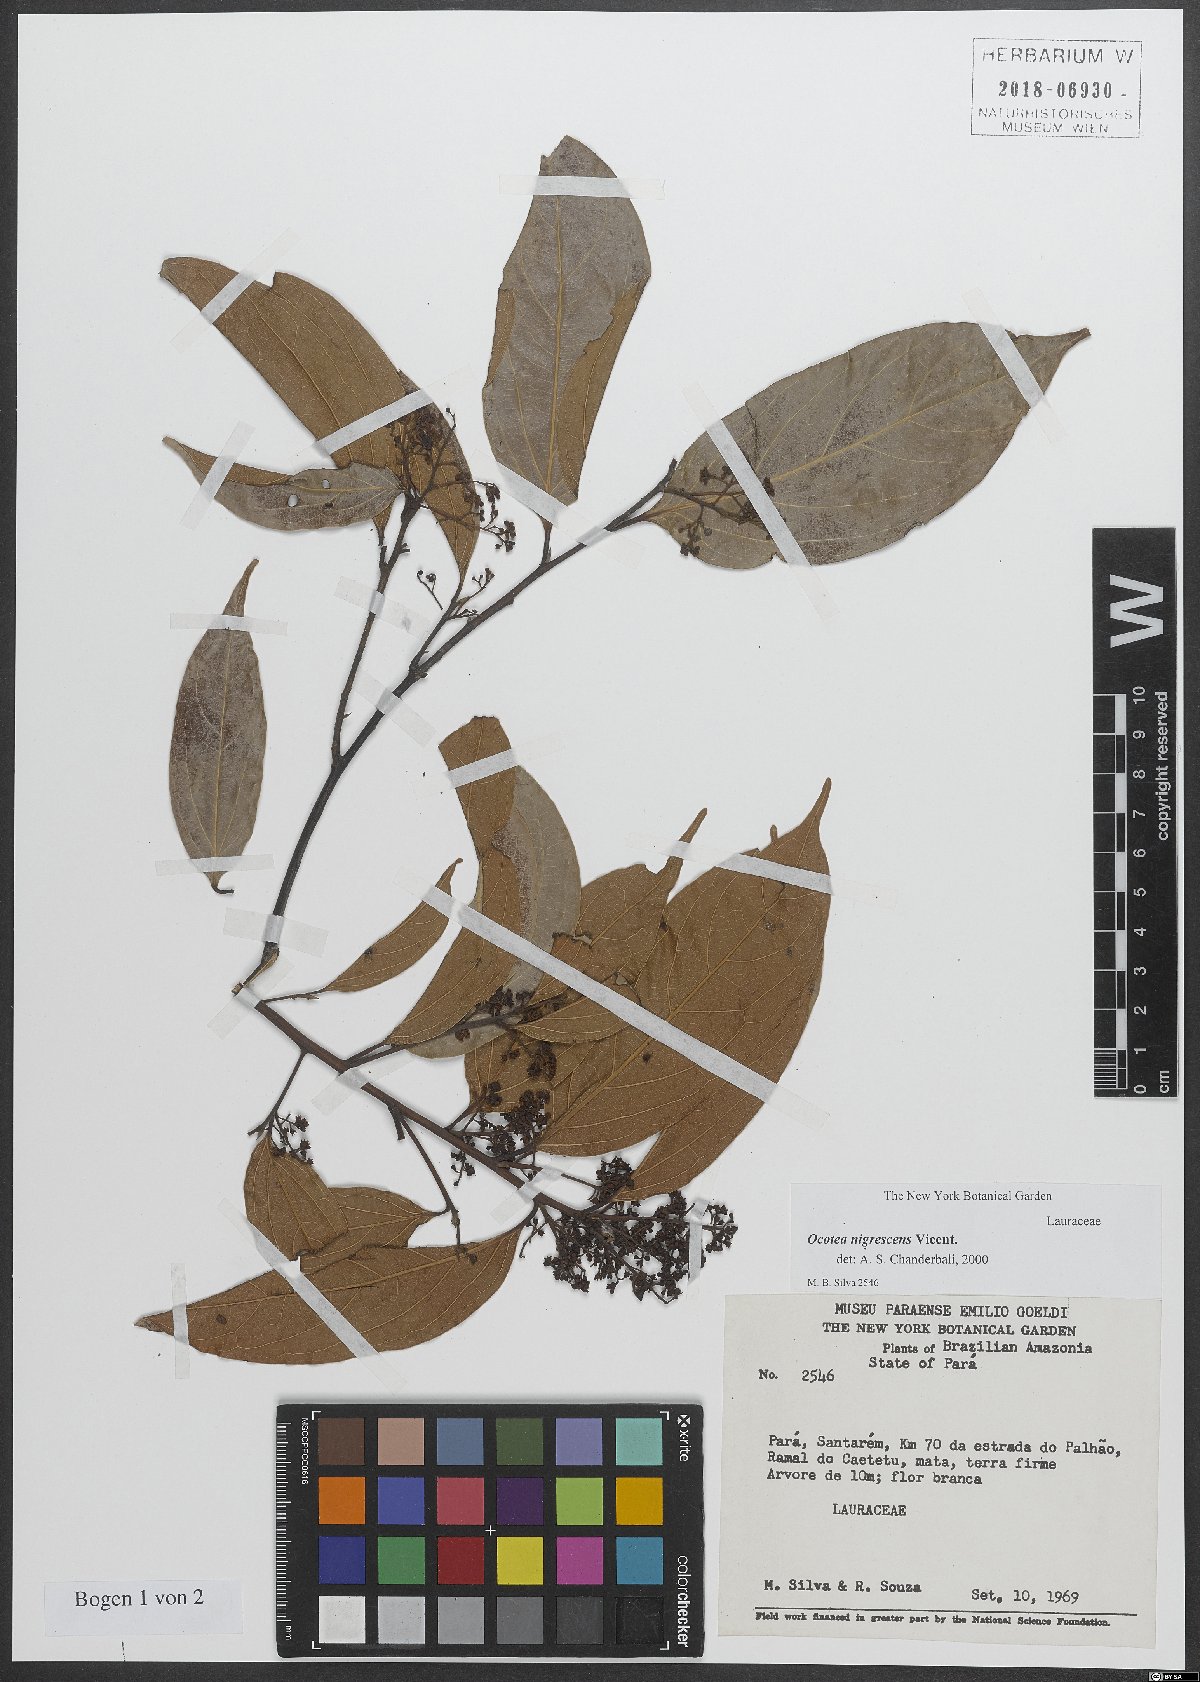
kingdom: Plantae
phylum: Tracheophyta
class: Magnoliopsida
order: Laurales
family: Lauraceae
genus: Ocotea
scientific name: Ocotea nigrescens
